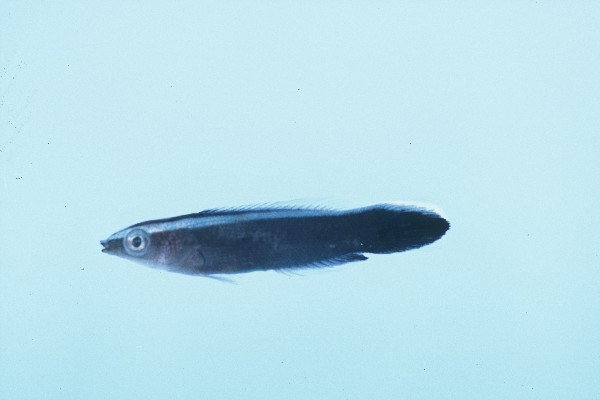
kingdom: Animalia
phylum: Chordata
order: Perciformes
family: Labridae
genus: Labroides
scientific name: Labroides dimidiatus
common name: Blue diesel wrasse
